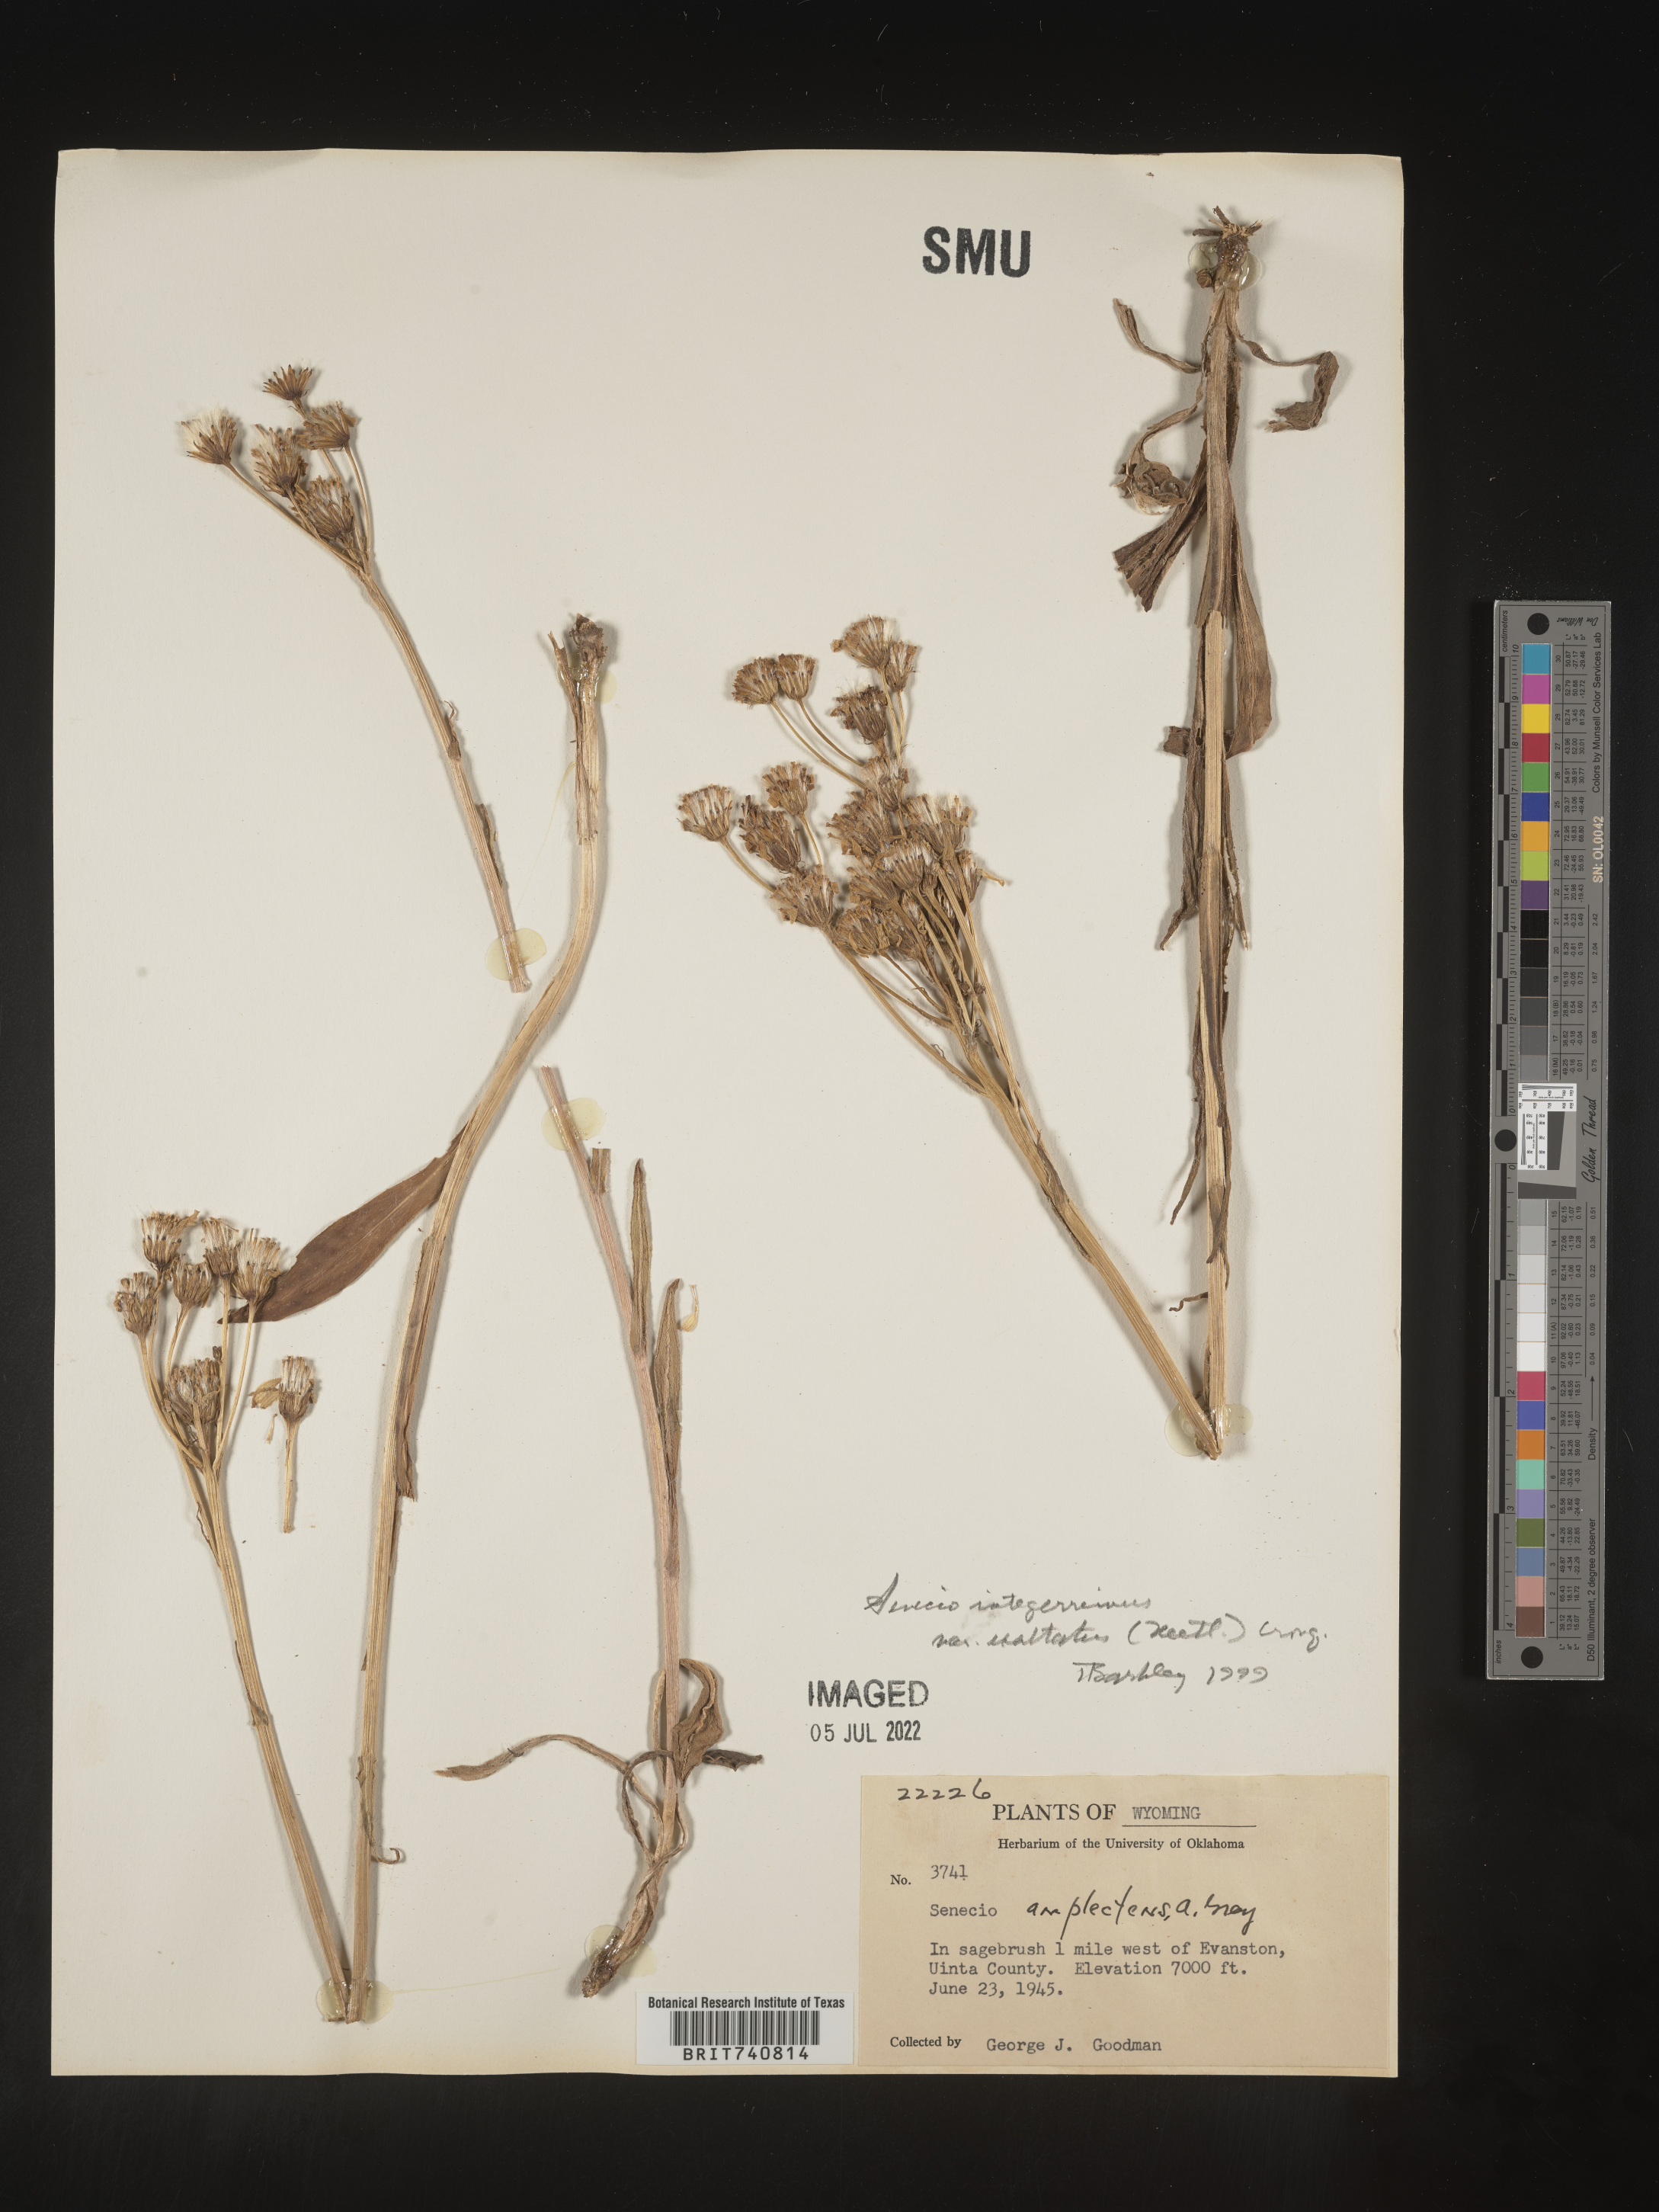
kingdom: Plantae
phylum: Tracheophyta
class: Magnoliopsida
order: Asterales
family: Asteraceae
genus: Senecio
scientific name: Senecio integerrimus
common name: Gaugeplant
